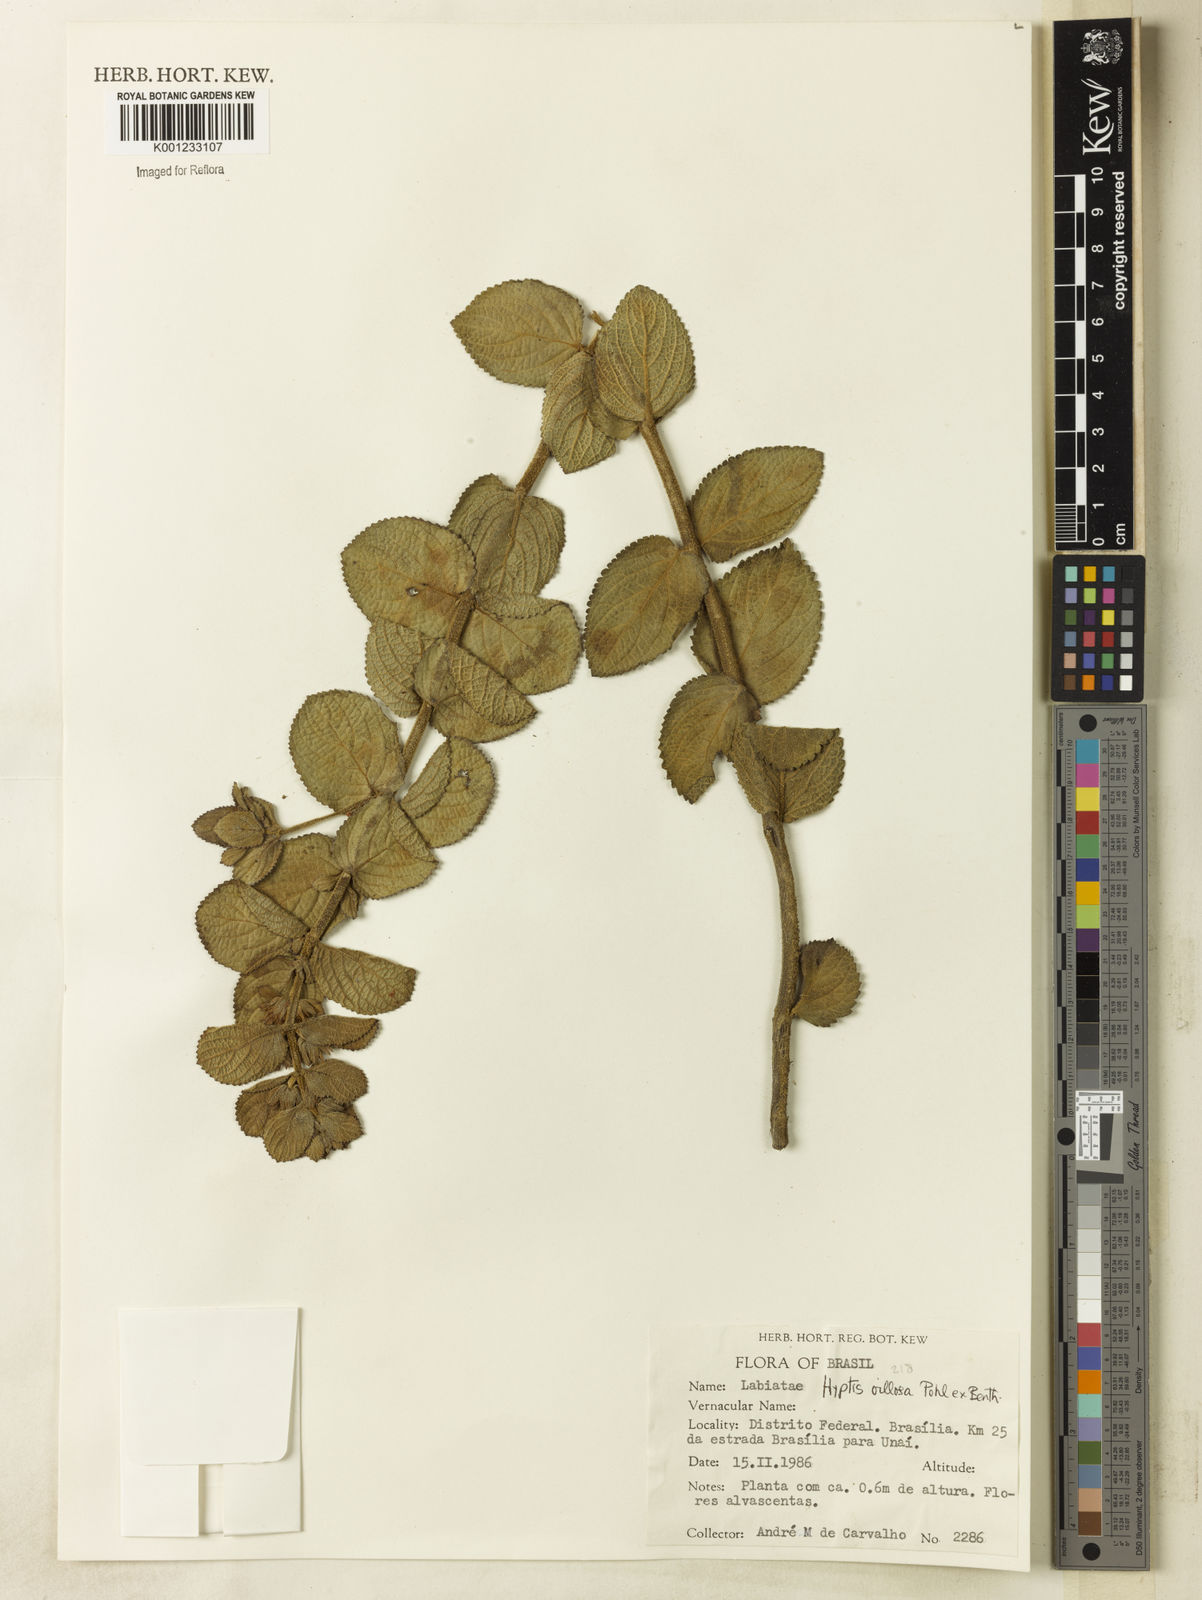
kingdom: Plantae
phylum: Tracheophyta
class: Magnoliopsida
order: Lamiales
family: Lamiaceae
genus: Hyptis
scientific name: Hyptis villosa
